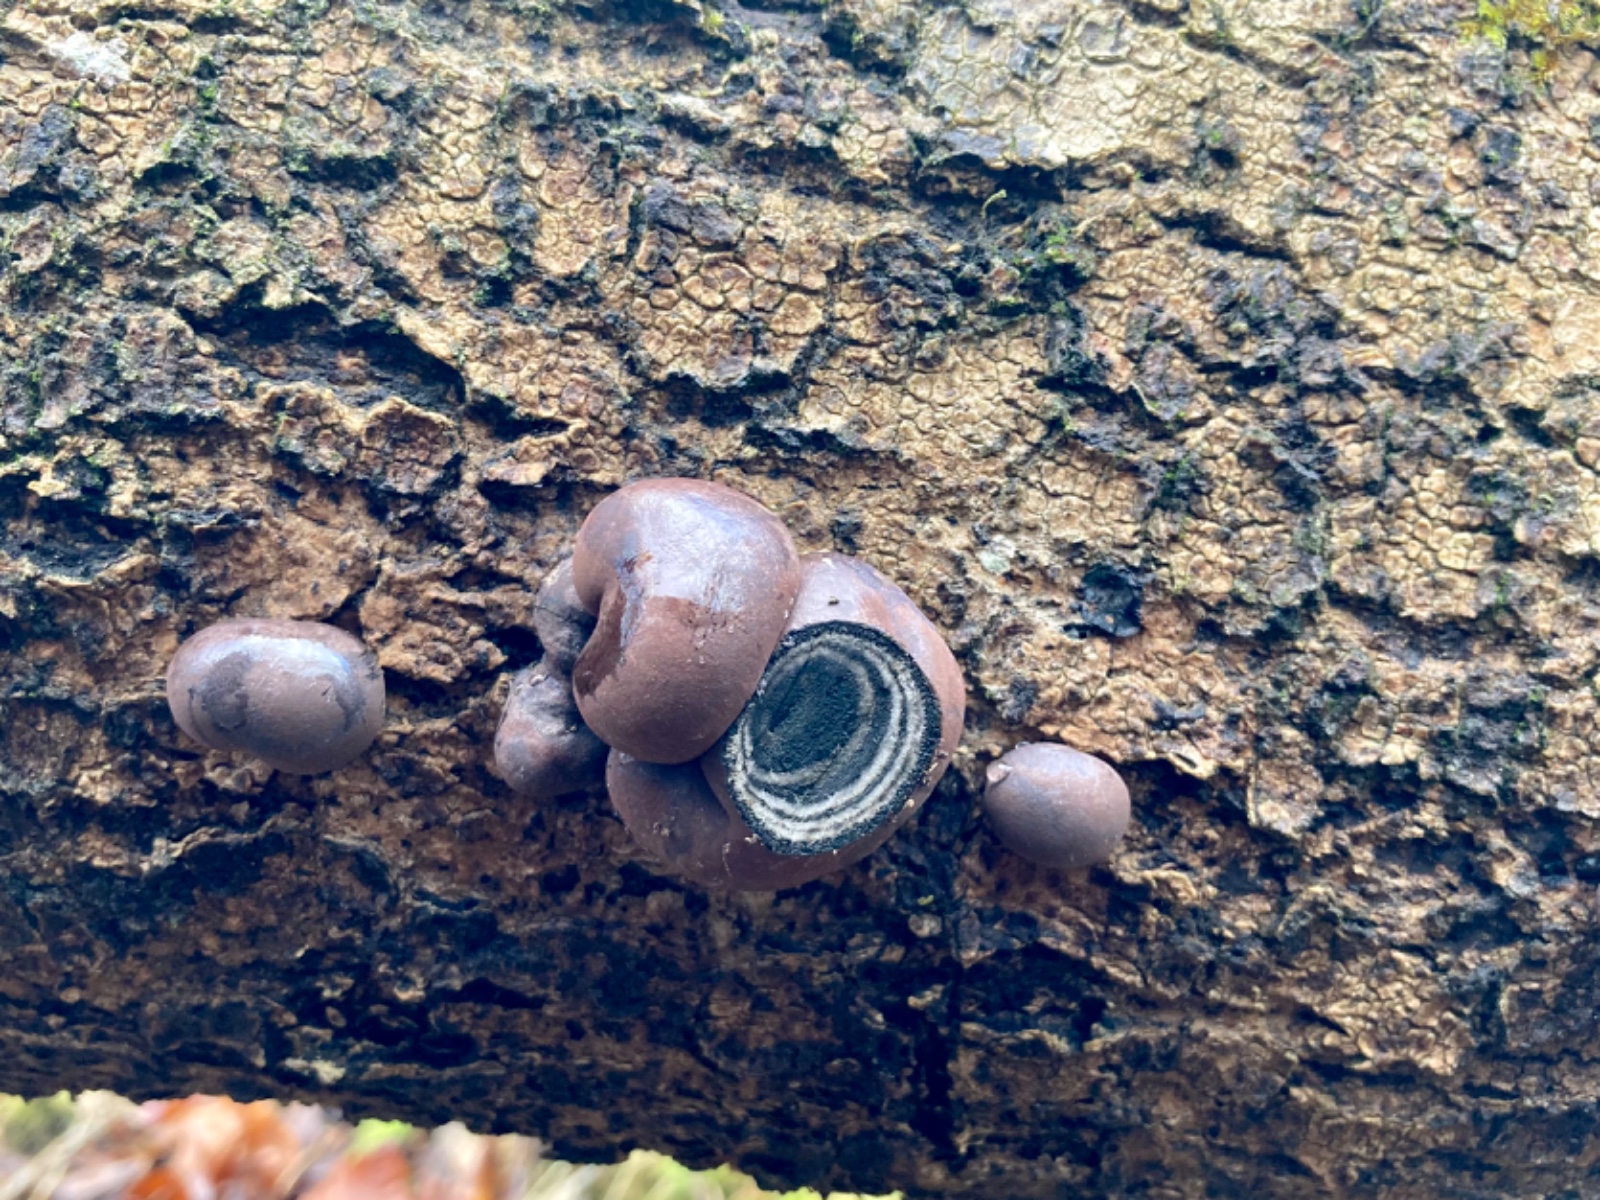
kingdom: Fungi
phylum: Ascomycota
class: Sordariomycetes
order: Xylariales
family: Hypoxylaceae
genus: Daldinia
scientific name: Daldinia concentrica
